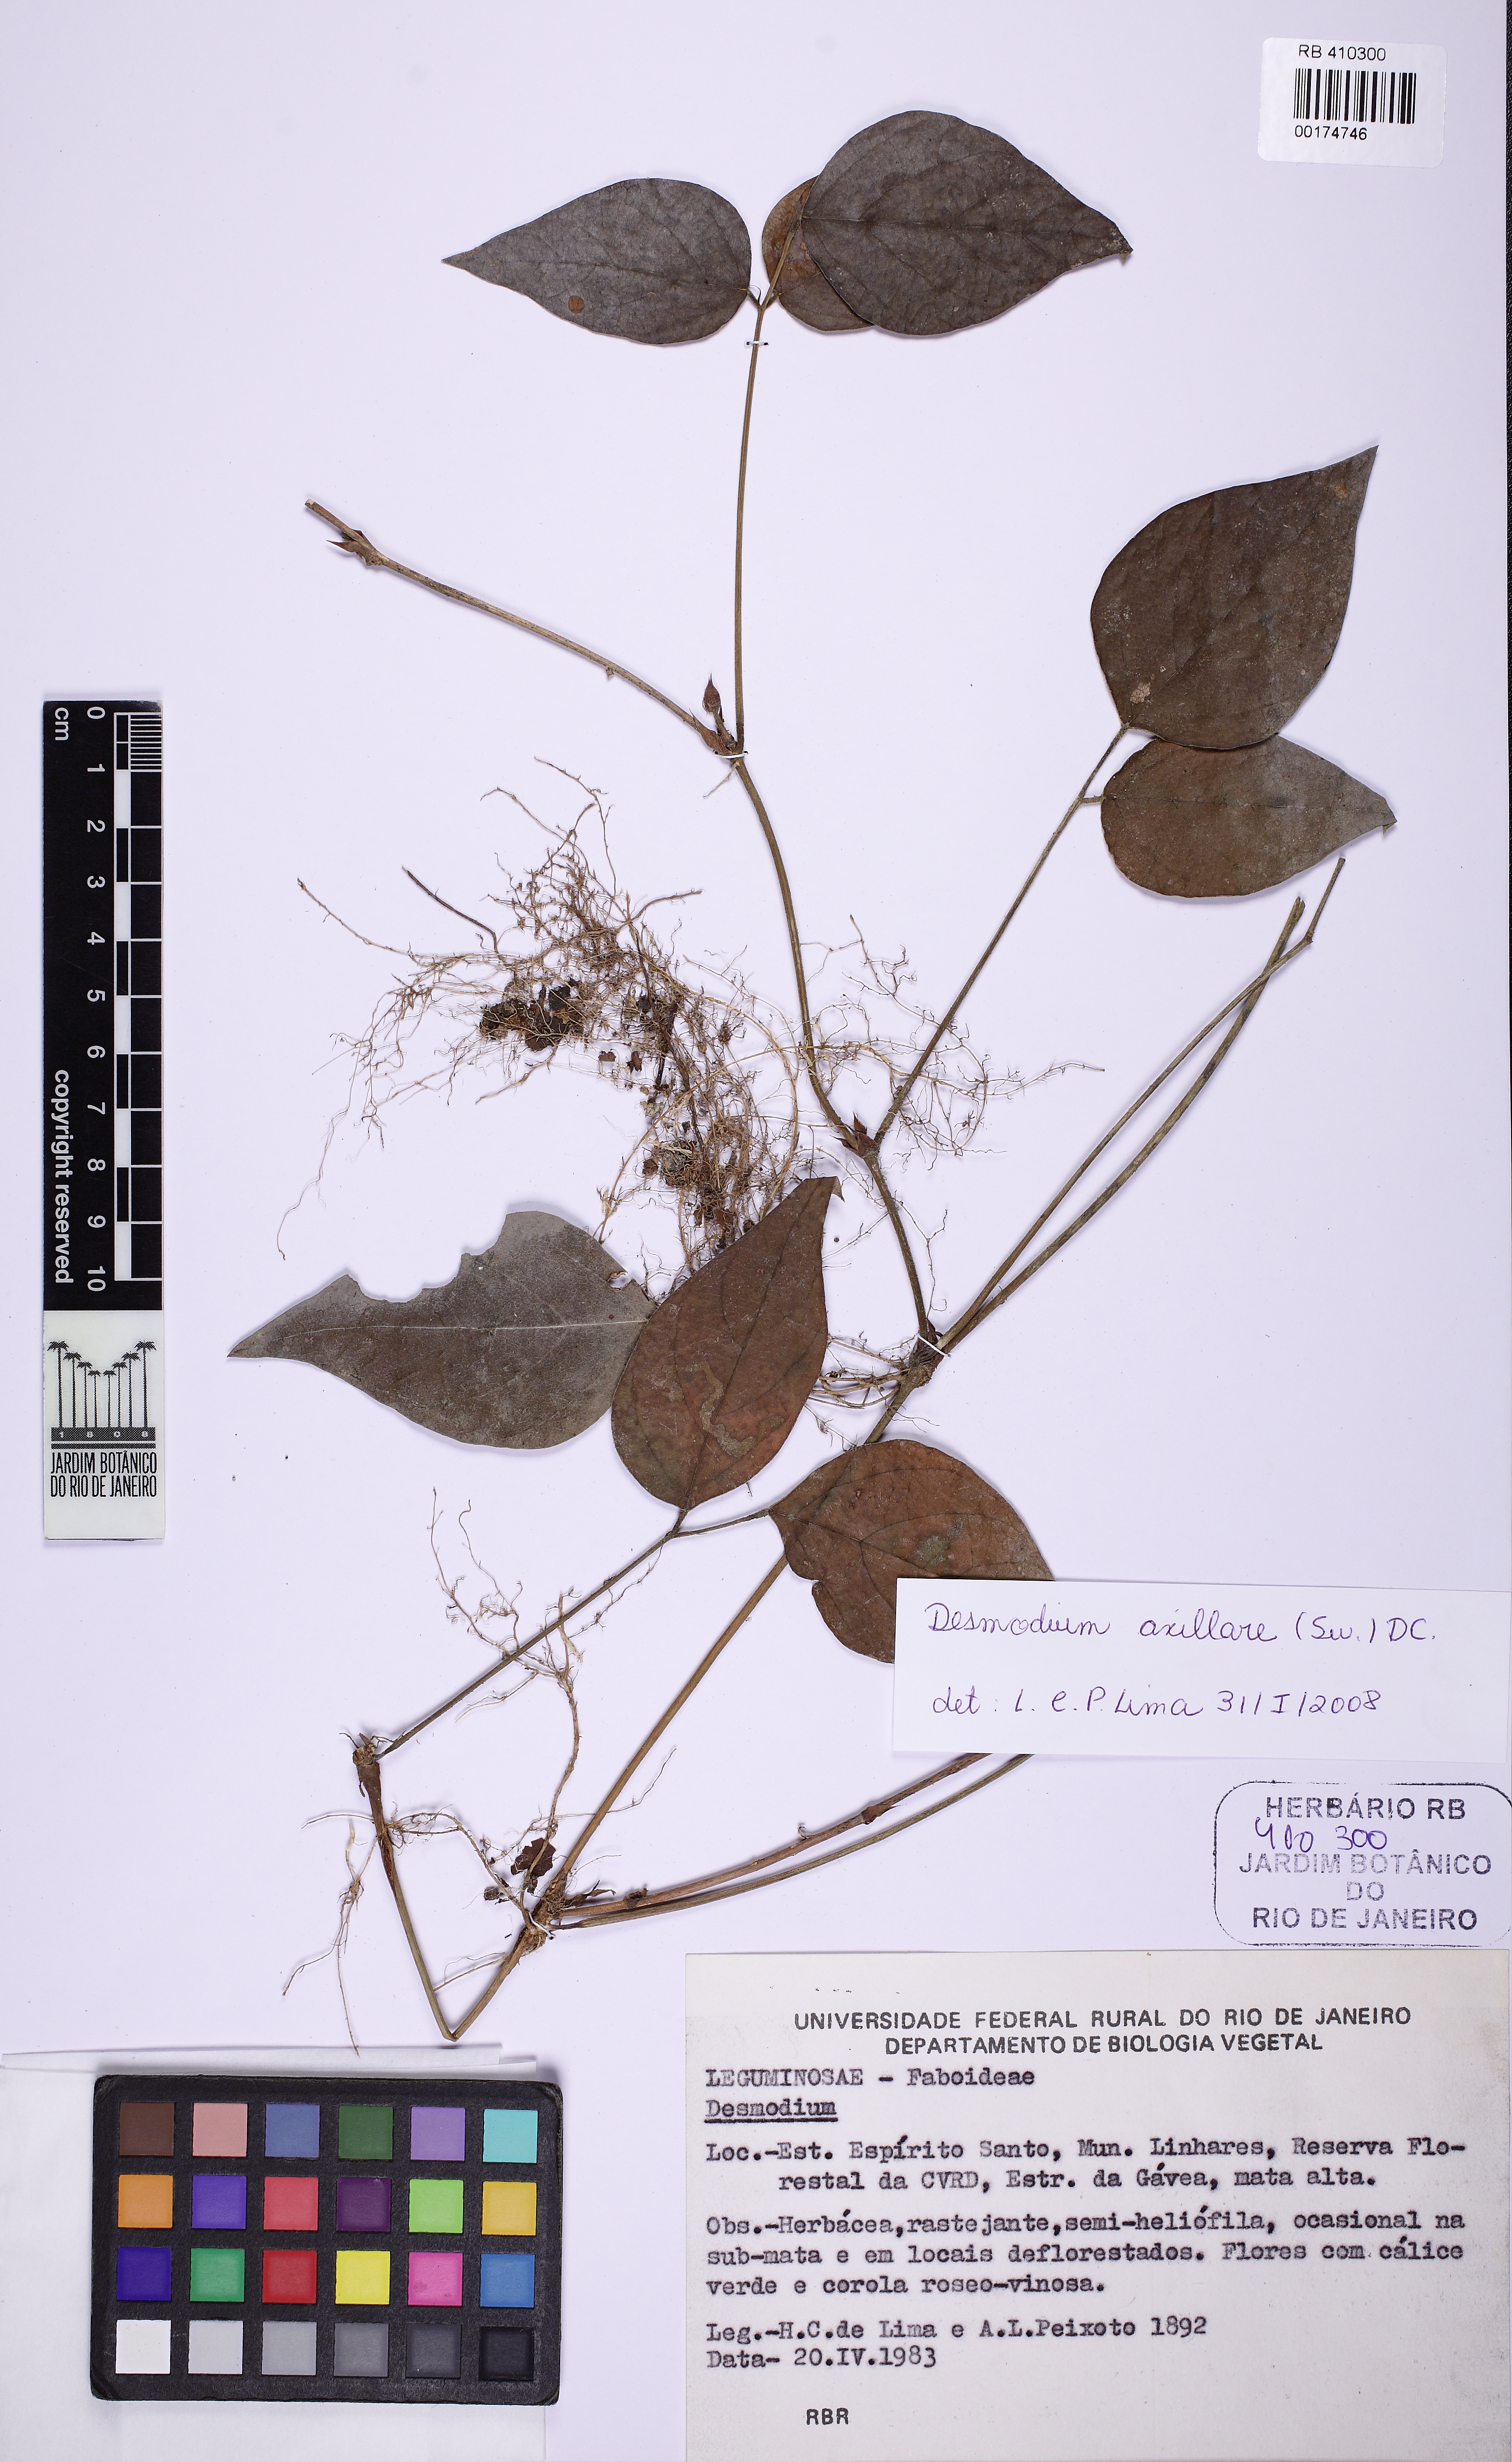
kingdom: Plantae
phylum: Tracheophyta
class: Magnoliopsida
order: Fabales
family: Fabaceae
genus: Desmodium
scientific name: Desmodium axillare
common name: Wire with
